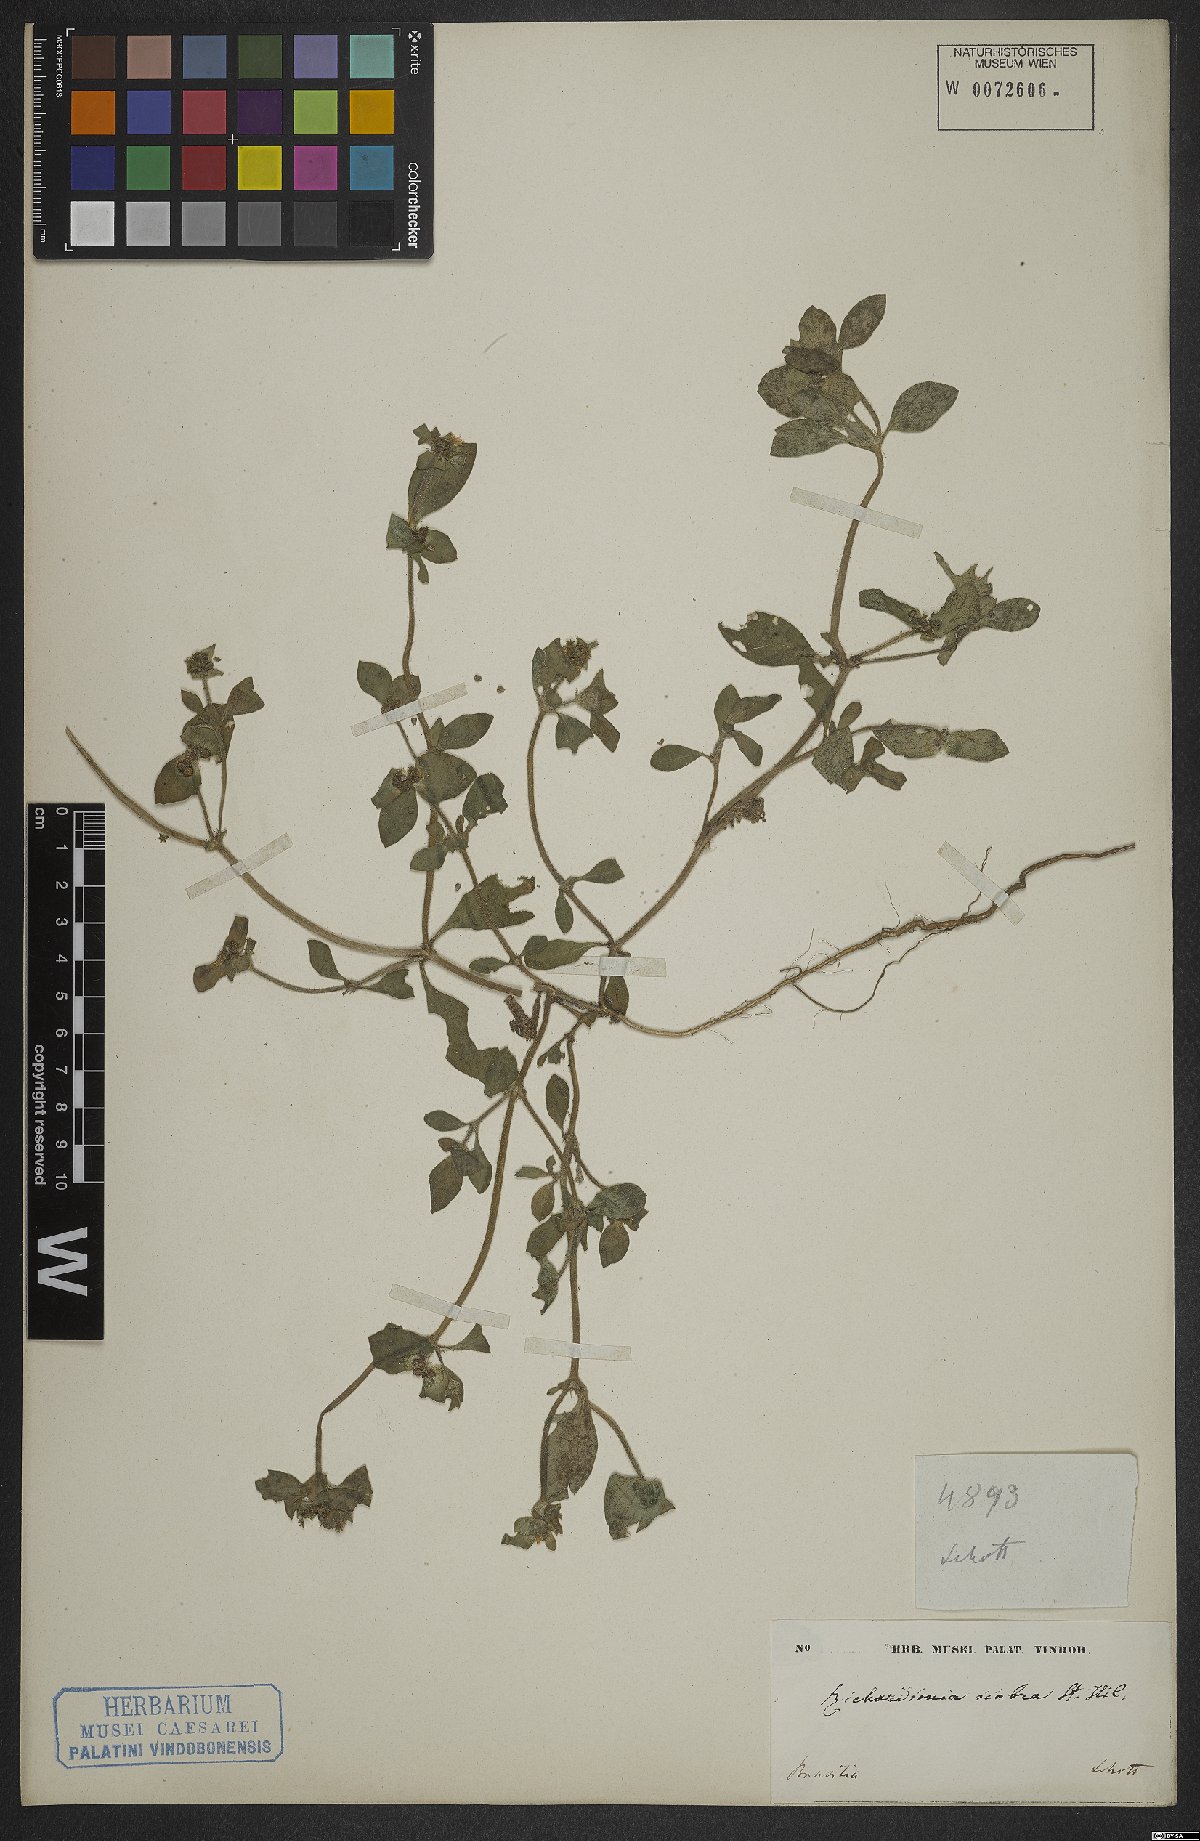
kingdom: Plantae
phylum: Tracheophyta
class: Magnoliopsida
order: Gentianales
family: Rubiaceae
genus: Richardia
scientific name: Richardia scabra
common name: Rough mexican clover
